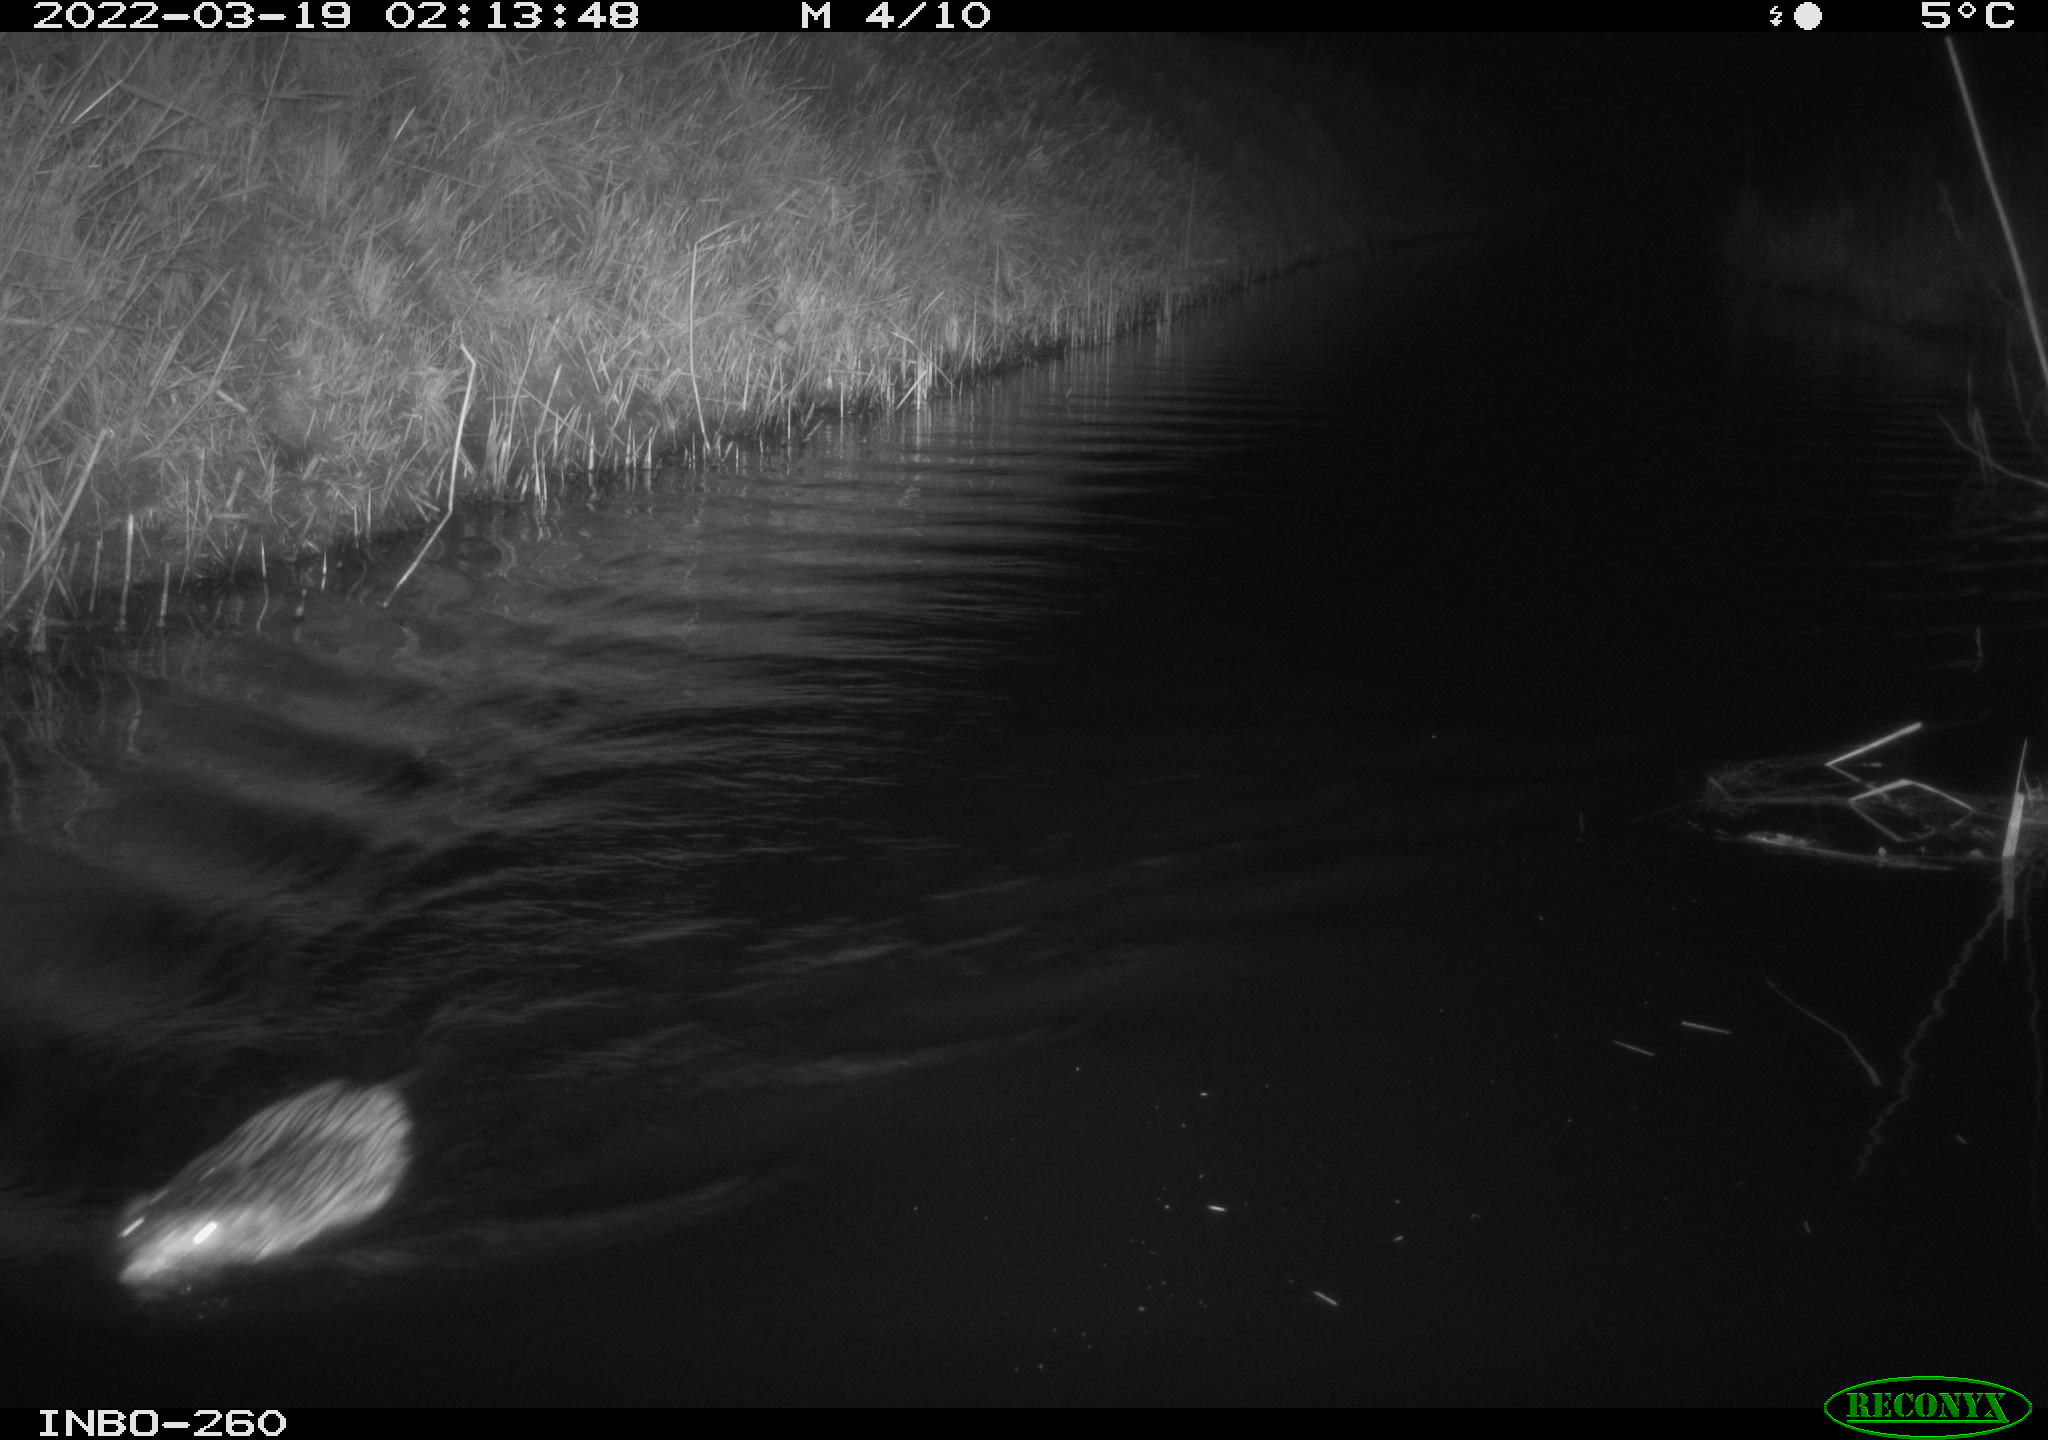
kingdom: Animalia
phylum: Chordata
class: Mammalia
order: Rodentia
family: Cricetidae
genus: Ondatra
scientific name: Ondatra zibethicus
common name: Muskrat
